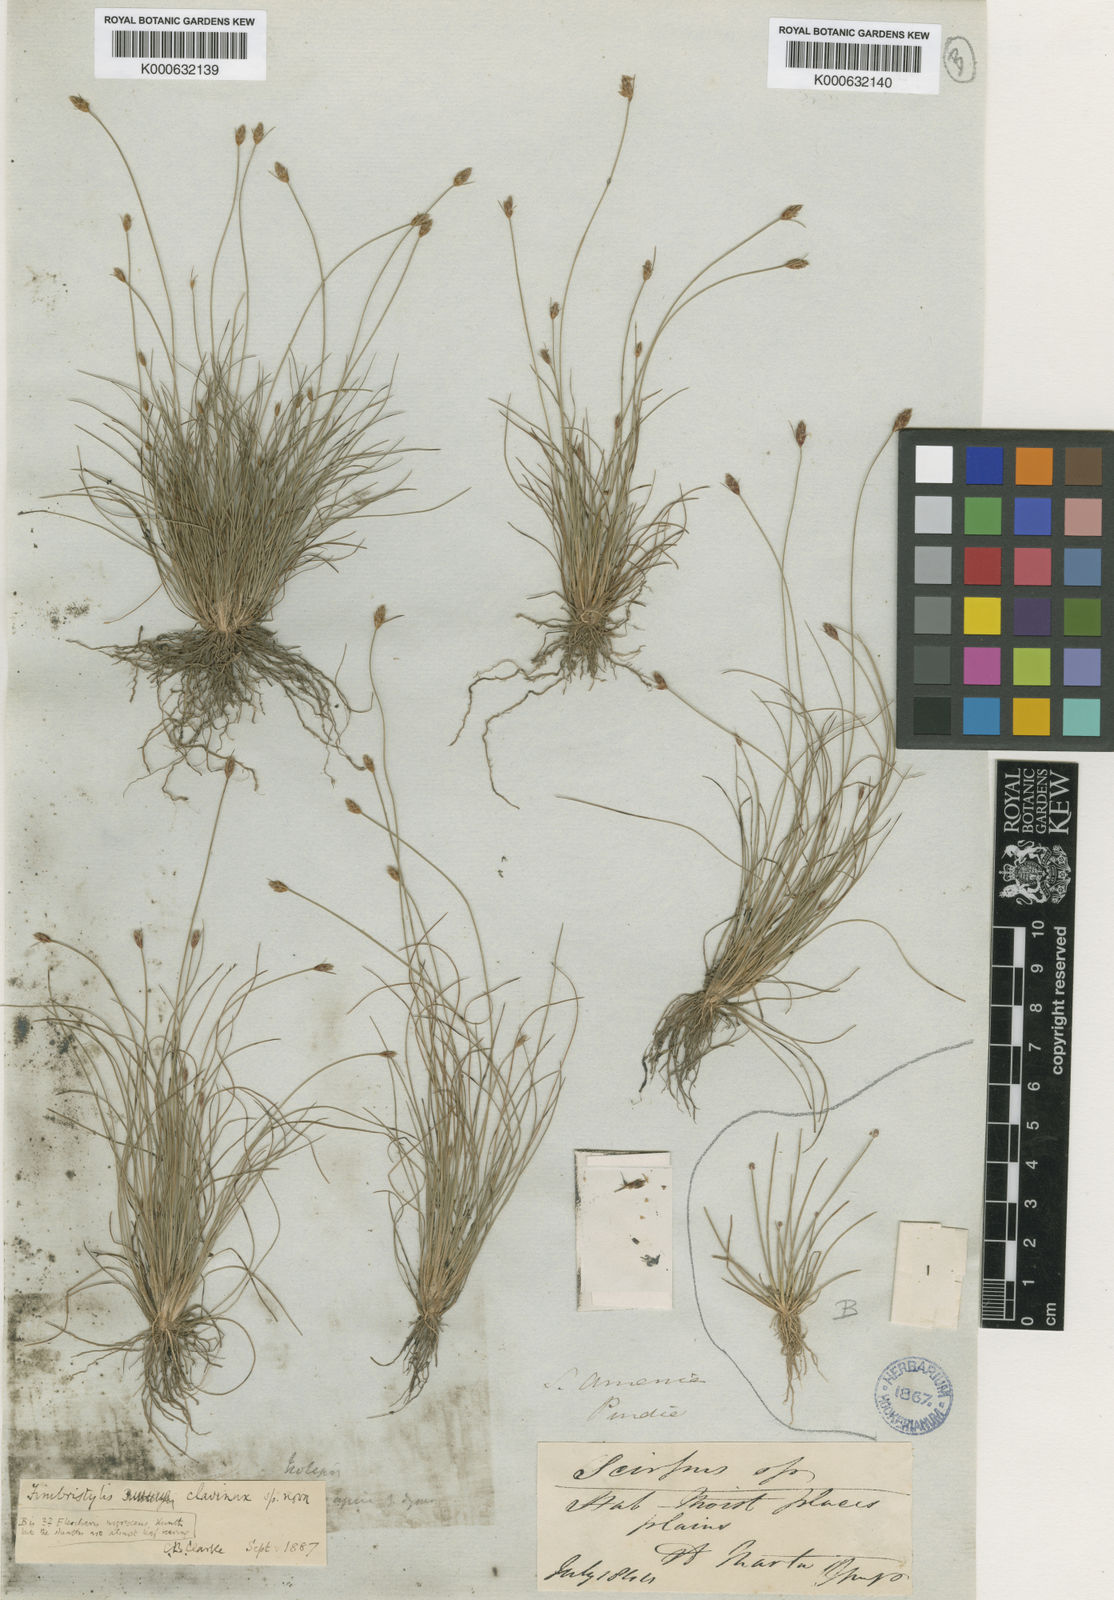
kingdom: Plantae
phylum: Tracheophyta
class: Liliopsida
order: Poales
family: Cyperaceae
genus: Bulbostylis
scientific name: Bulbostylis pubescens
